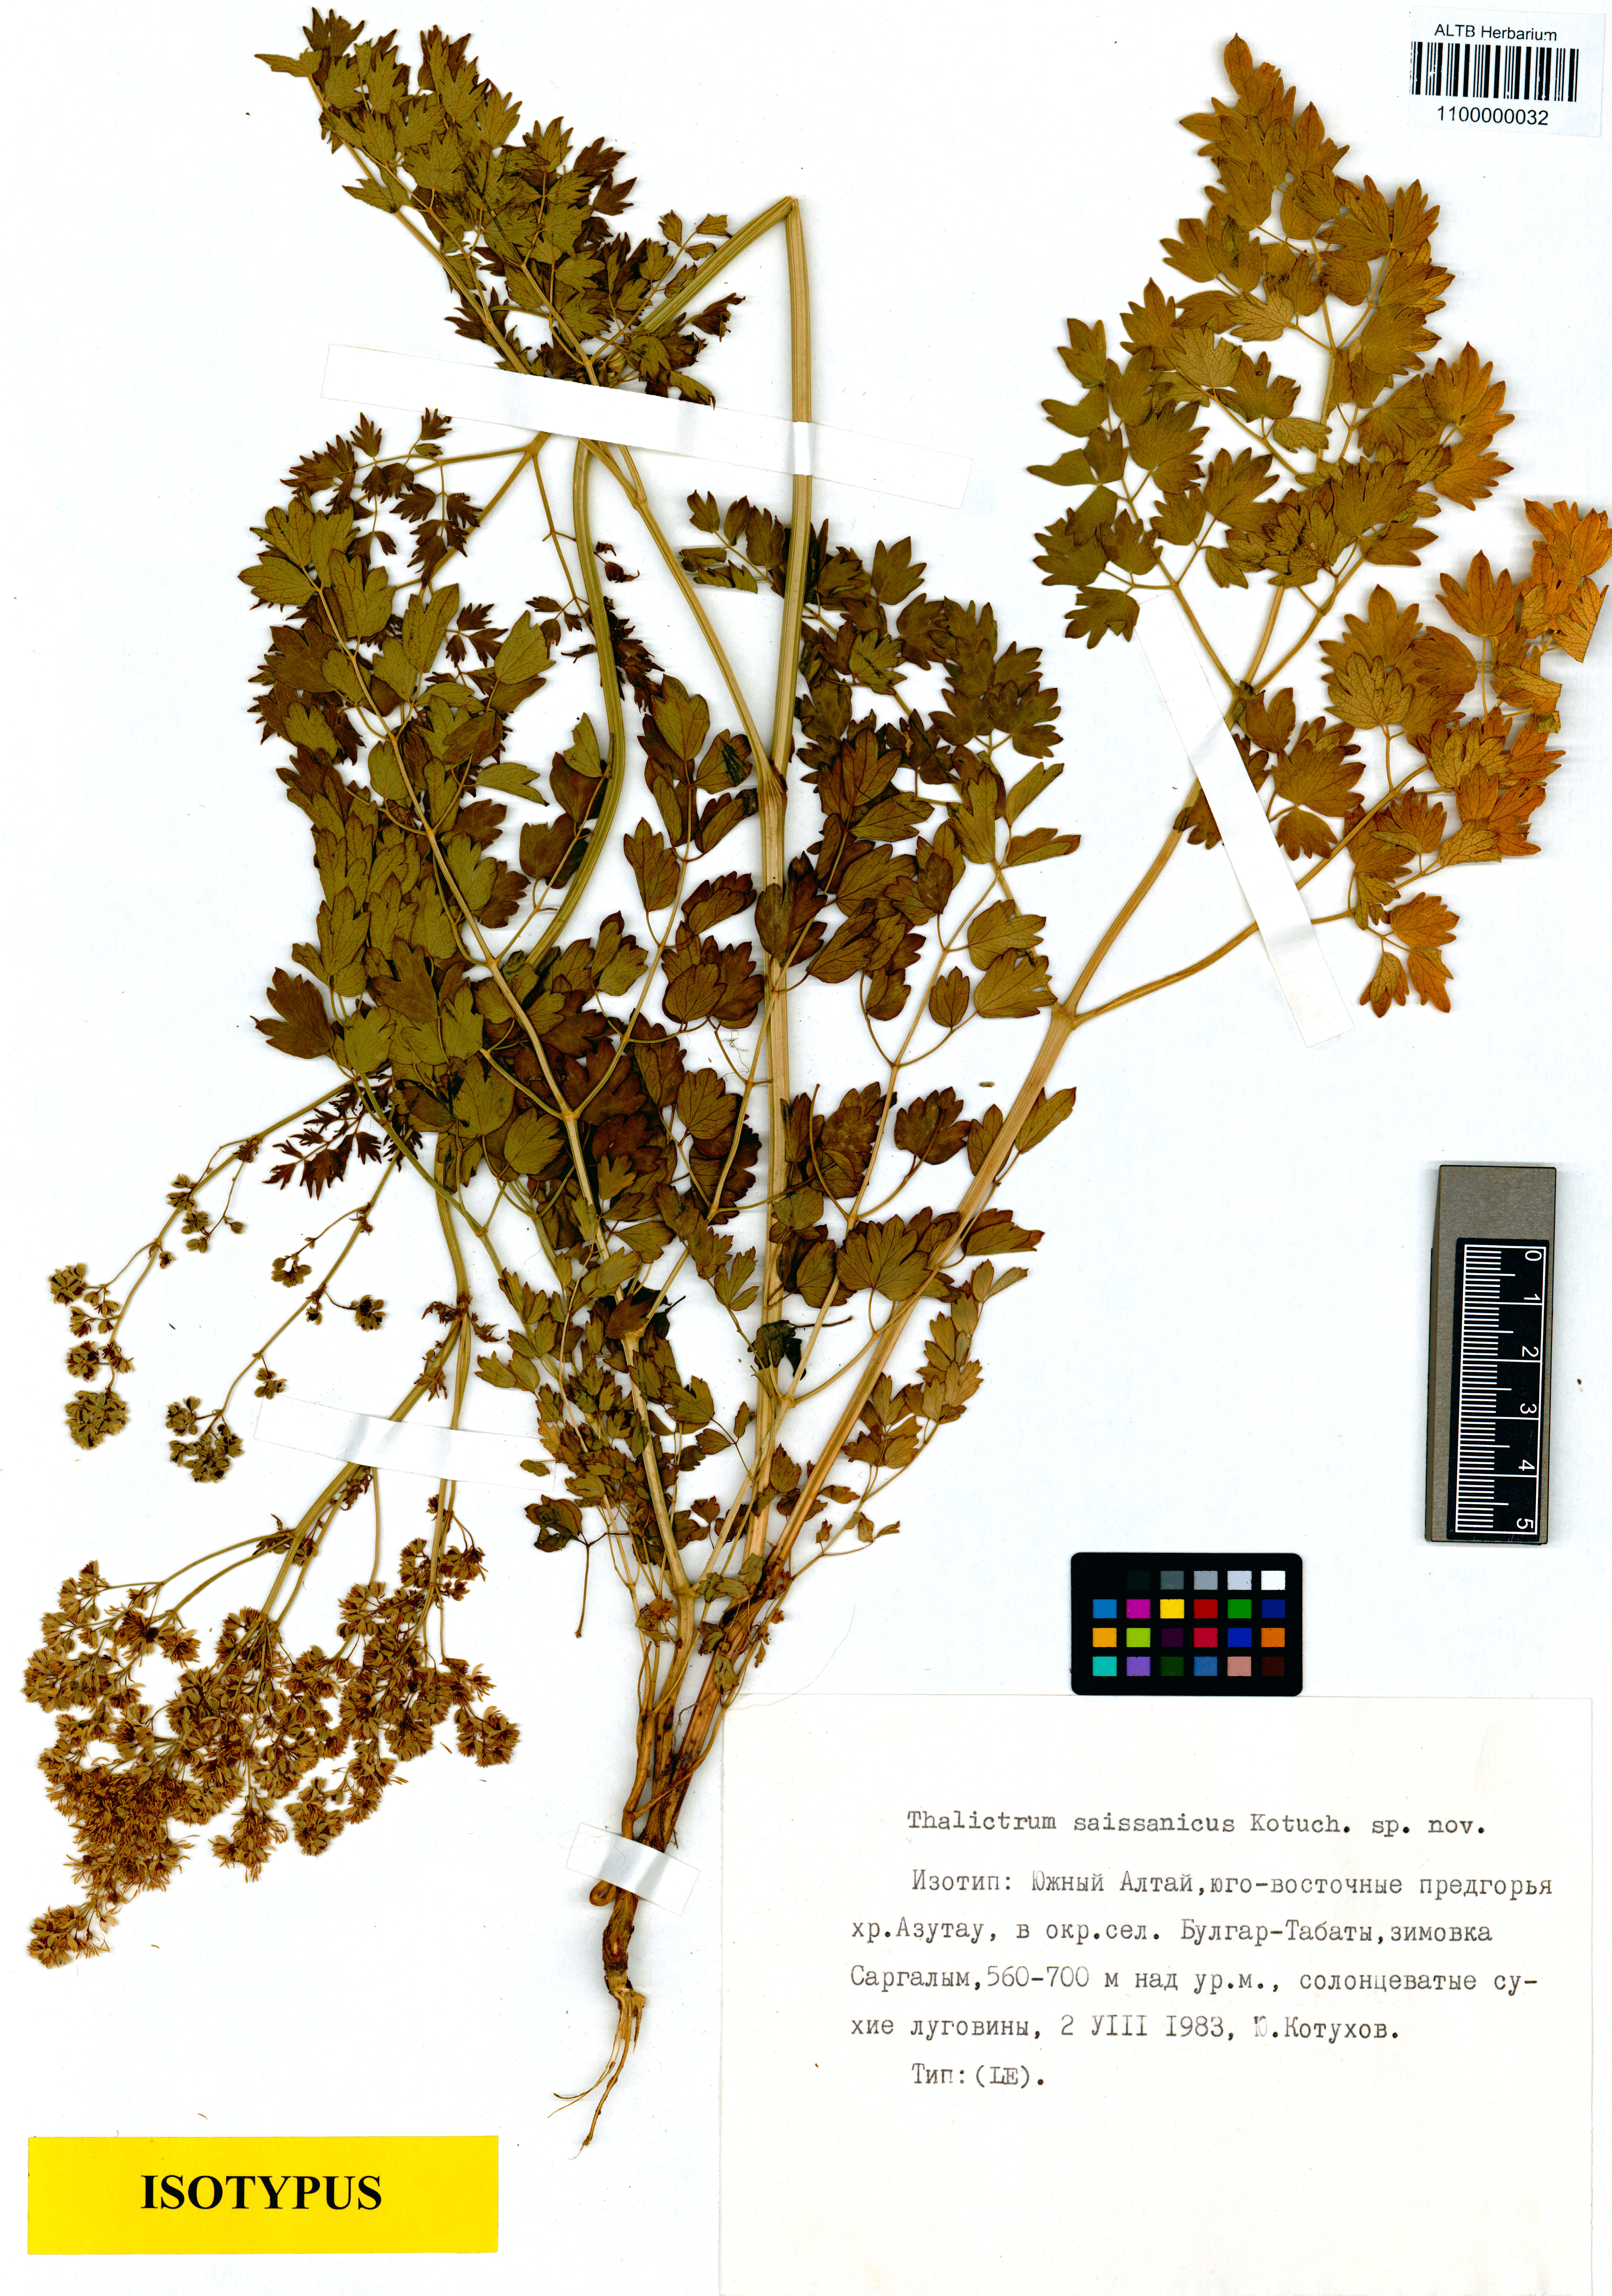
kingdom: Plantae
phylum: Tracheophyta
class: Magnoliopsida
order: Ranunculales
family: Ranunculaceae
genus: Thalictrum
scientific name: Thalictrum minus
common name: Lesser meadow-rue
